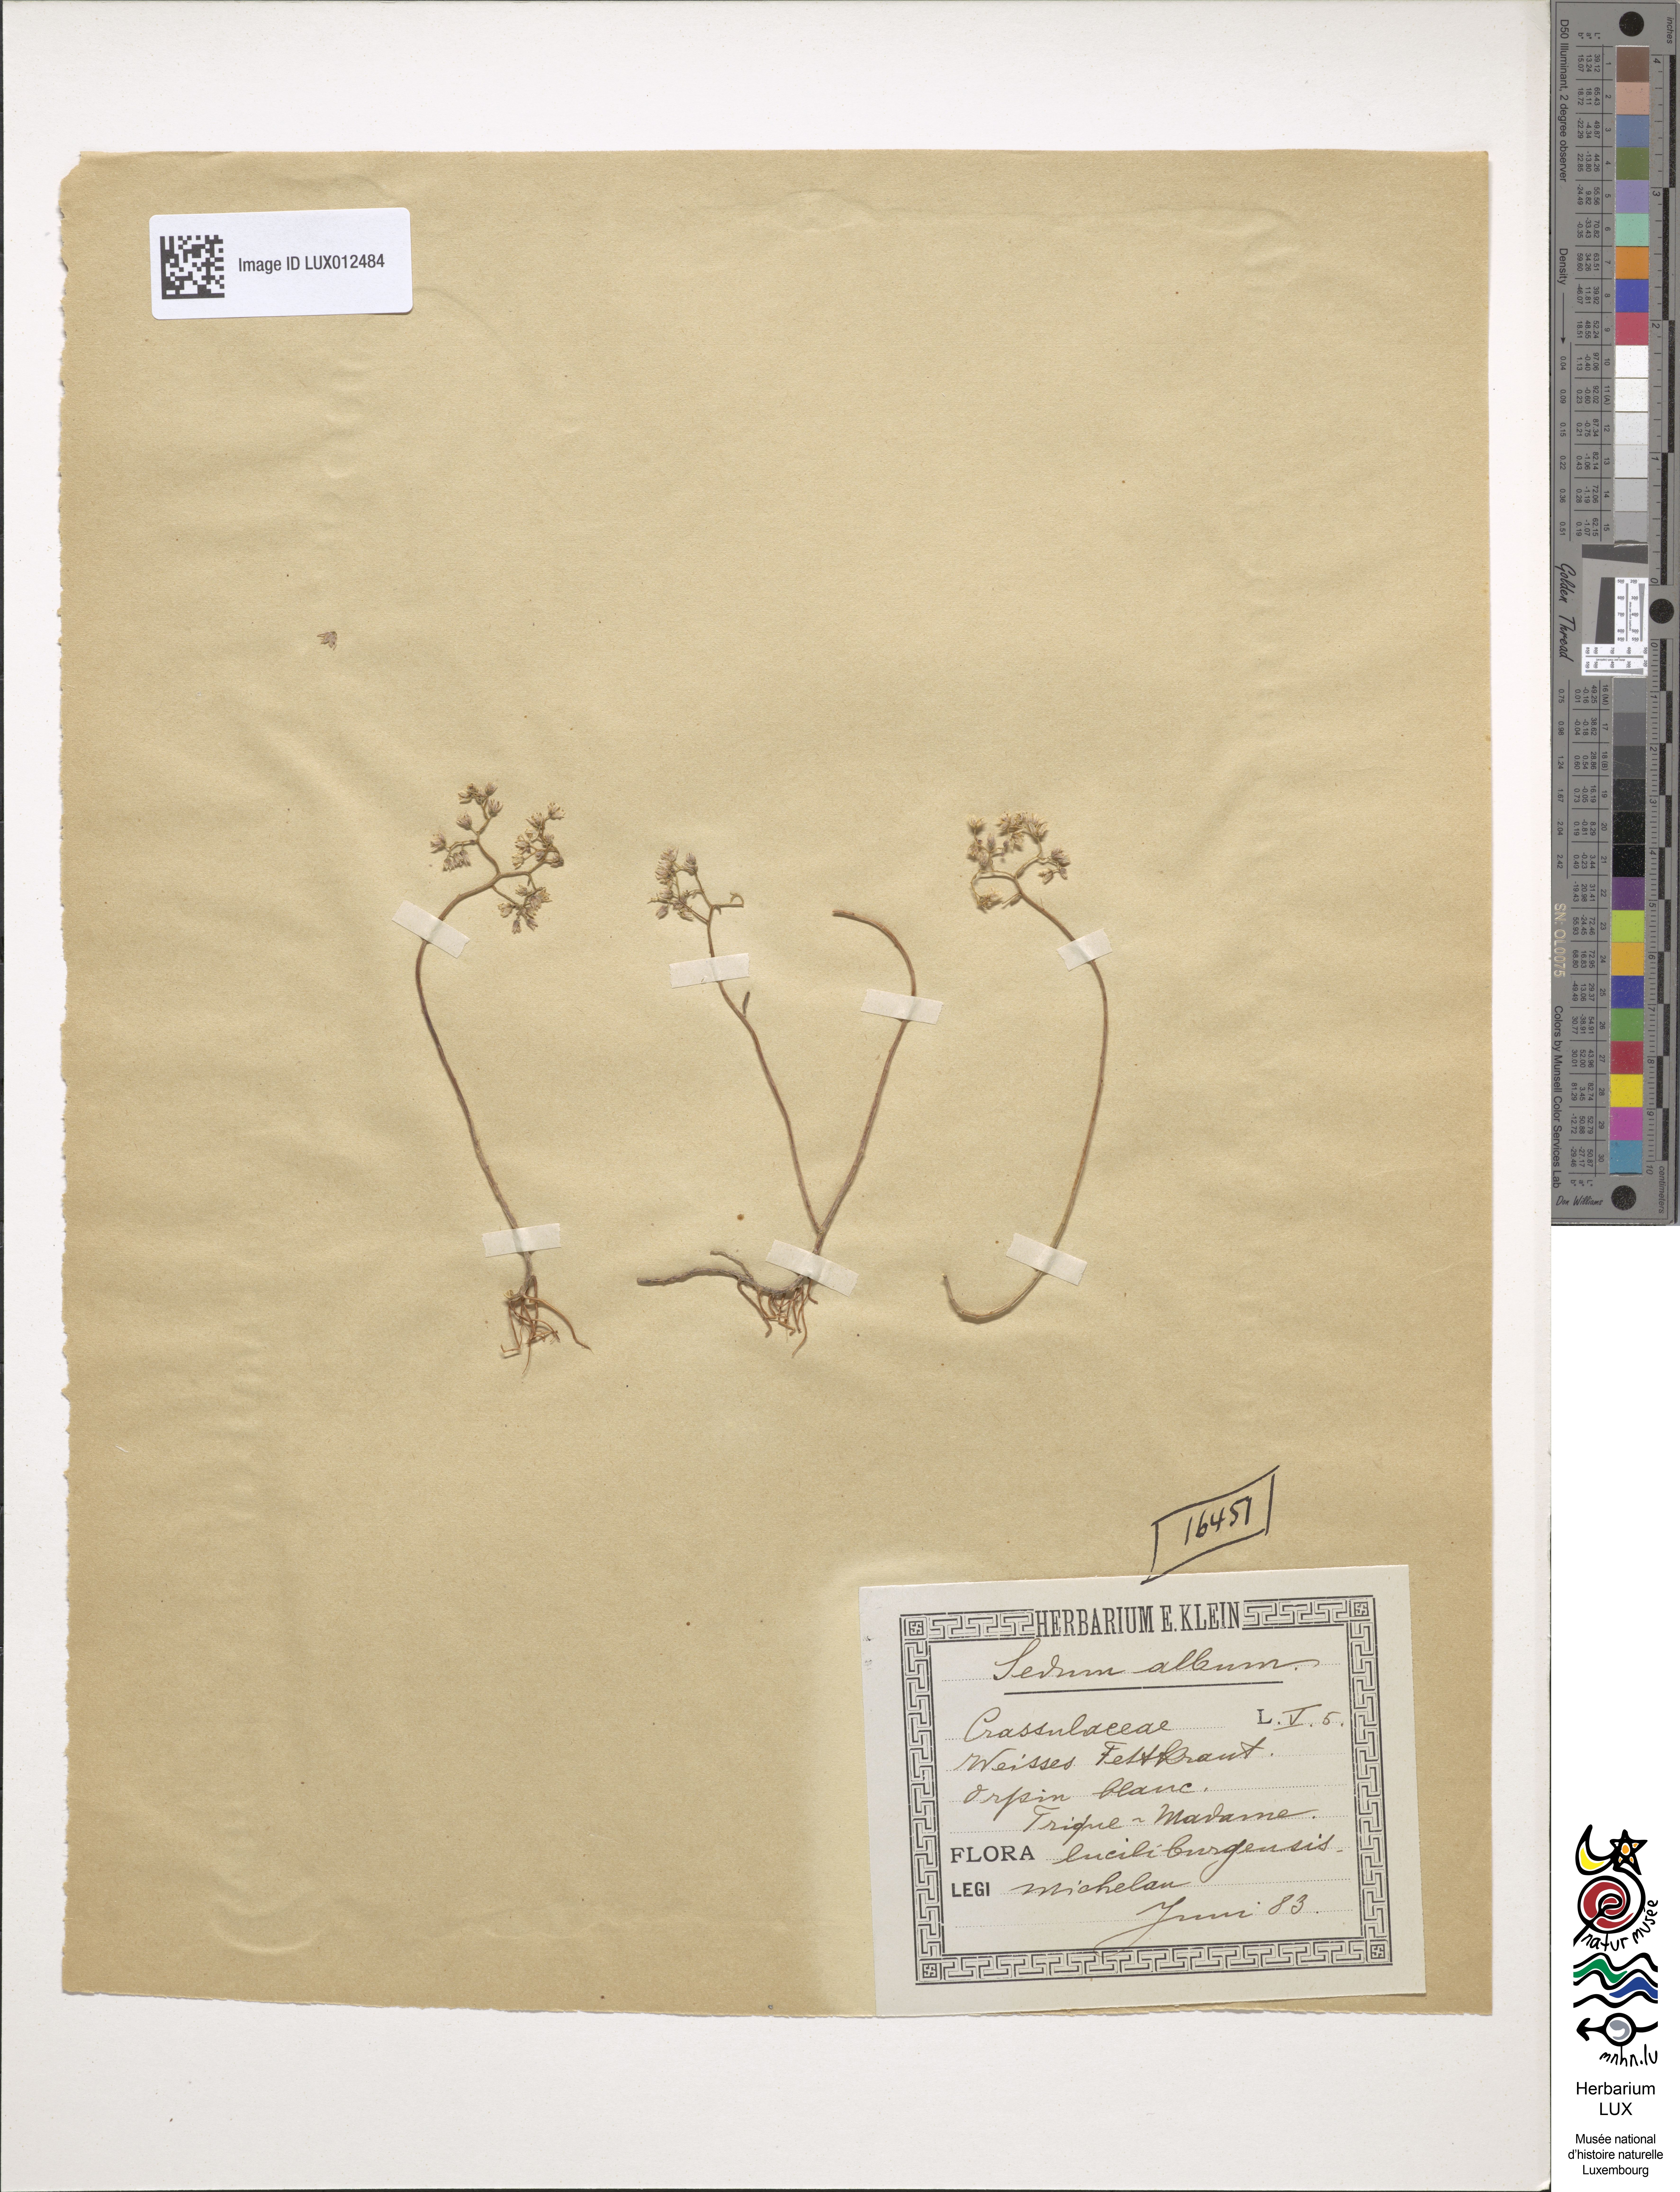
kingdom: Plantae
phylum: Tracheophyta
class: Magnoliopsida
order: Saxifragales
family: Crassulaceae
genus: Sedum
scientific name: Sedum album
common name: White stonecrop
